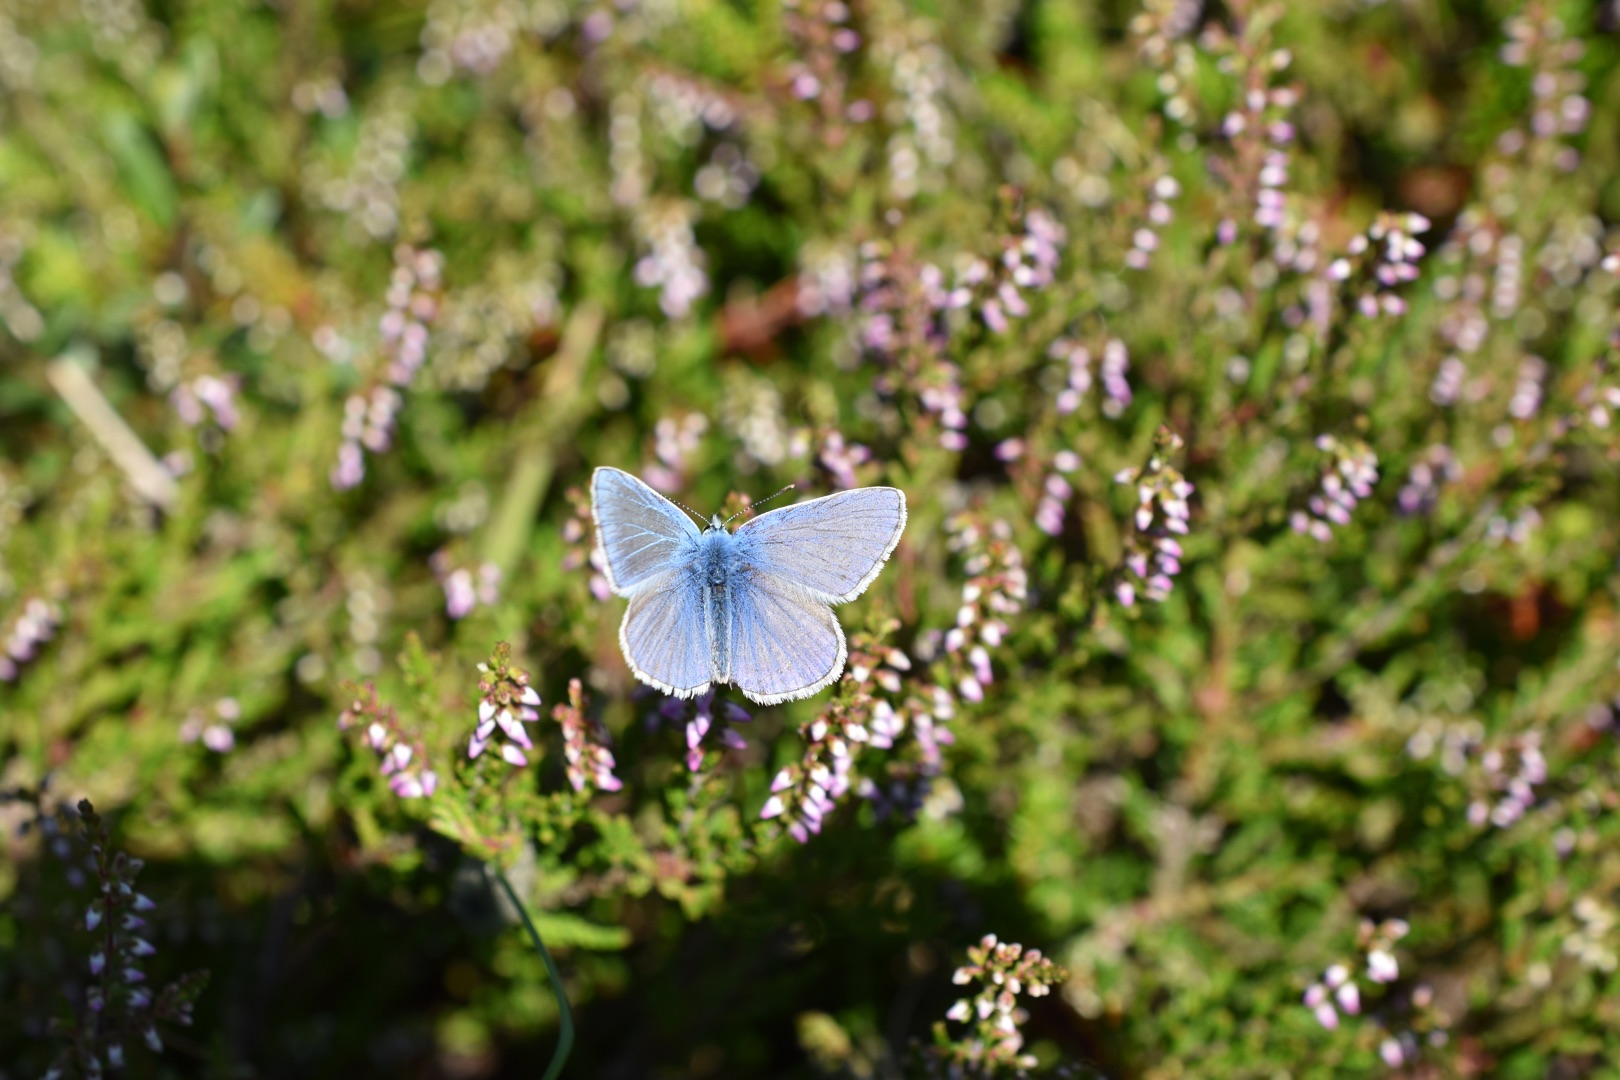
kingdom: Animalia
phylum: Arthropoda
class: Insecta
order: Lepidoptera
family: Lycaenidae
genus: Polyommatus
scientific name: Polyommatus icarus
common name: Almindelig blåfugl
